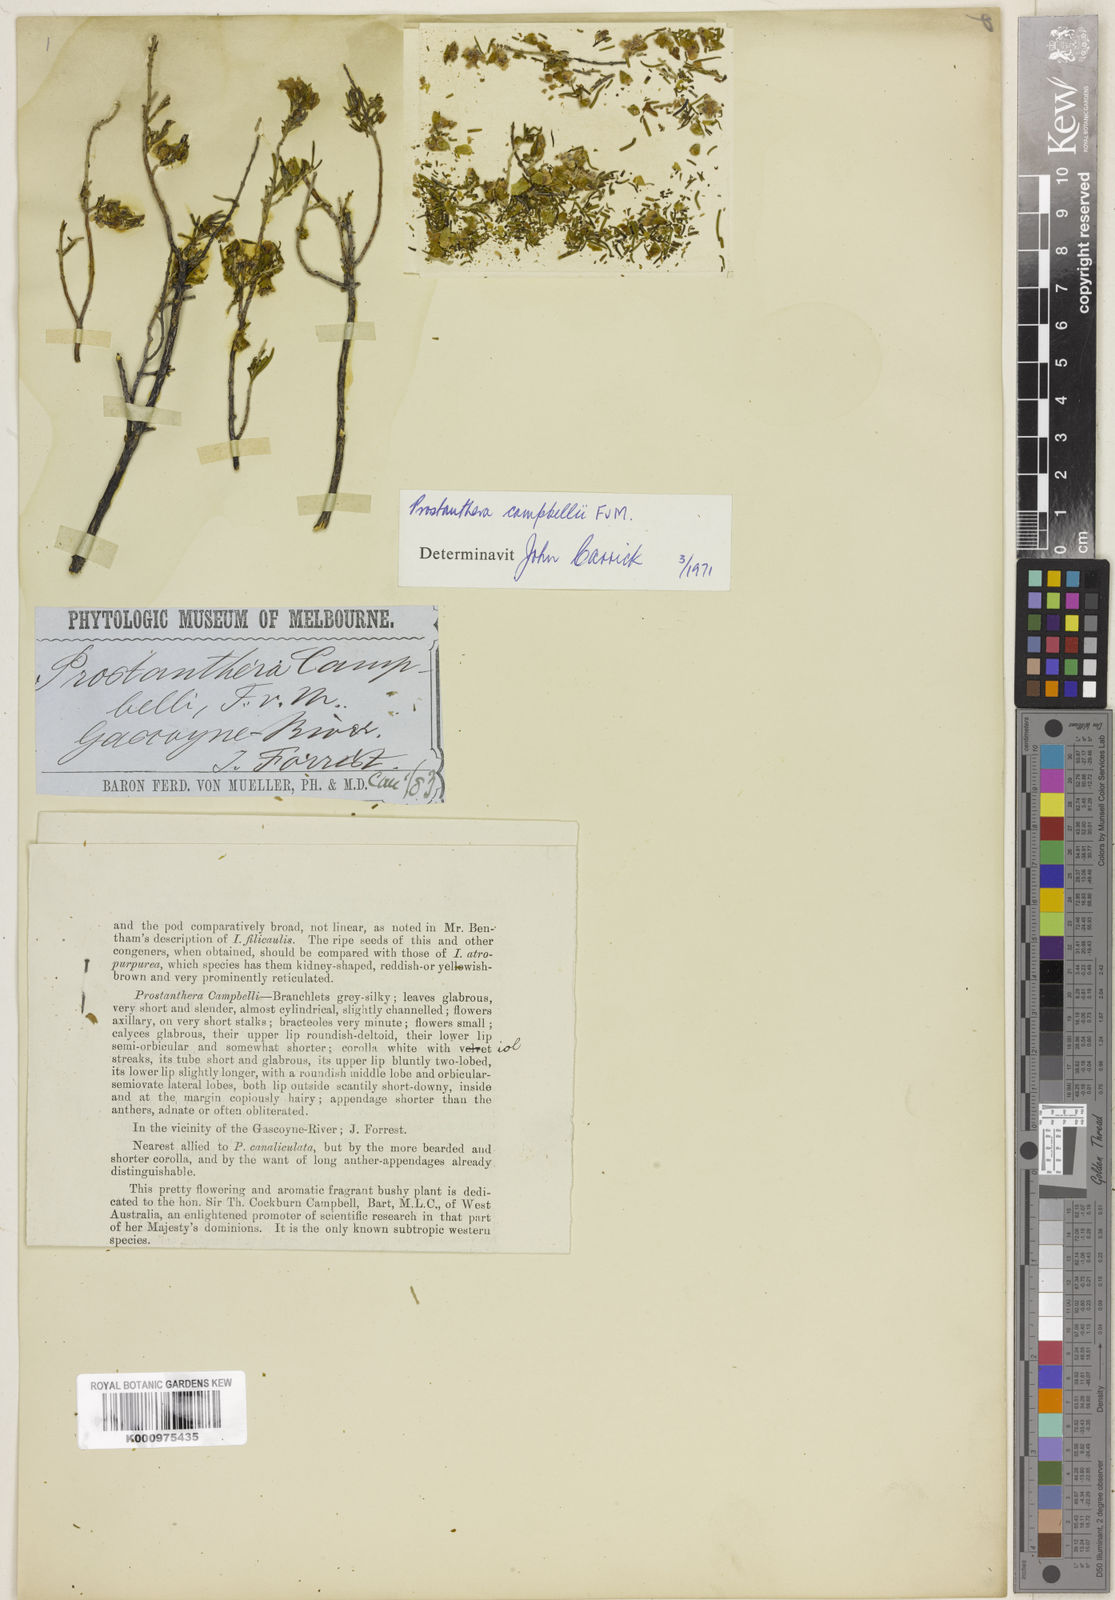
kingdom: Plantae
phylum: Tracheophyta
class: Magnoliopsida
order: Lamiales
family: Lamiaceae
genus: Prostanthera
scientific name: Prostanthera campbellii
